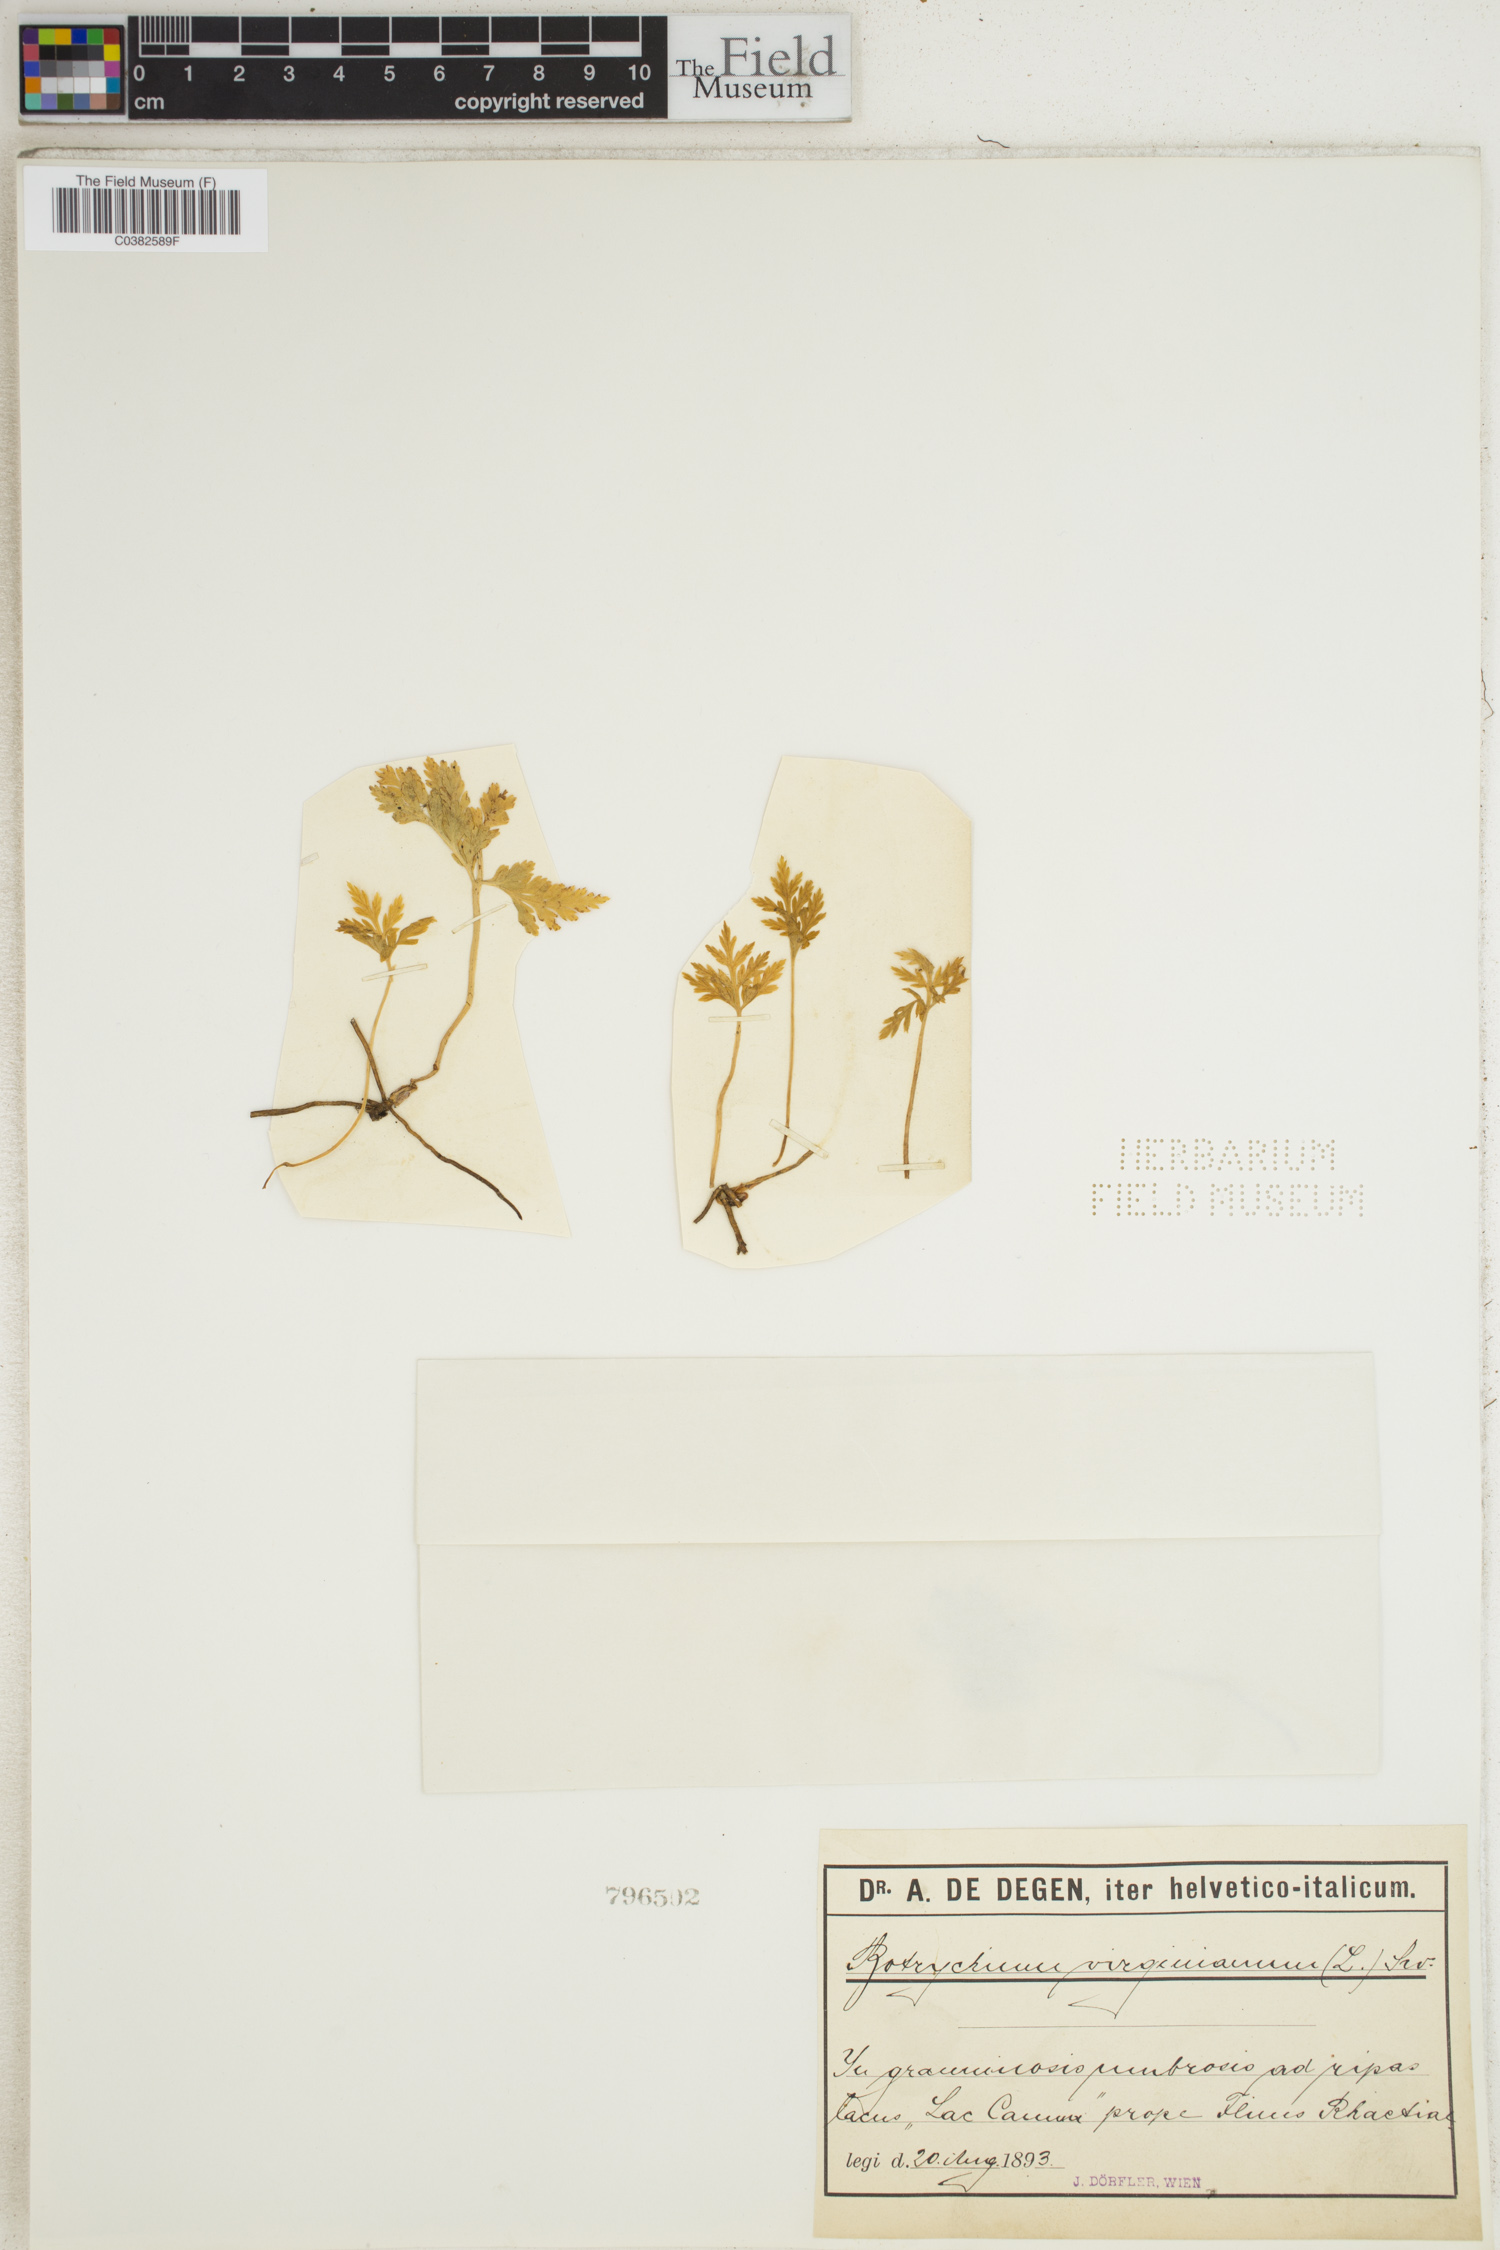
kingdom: Plantae
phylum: Tracheophyta
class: Polypodiopsida
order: Ophioglossales
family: Ophioglossaceae
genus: Botrypus
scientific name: Botrypus virginianus
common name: Common grapefern
